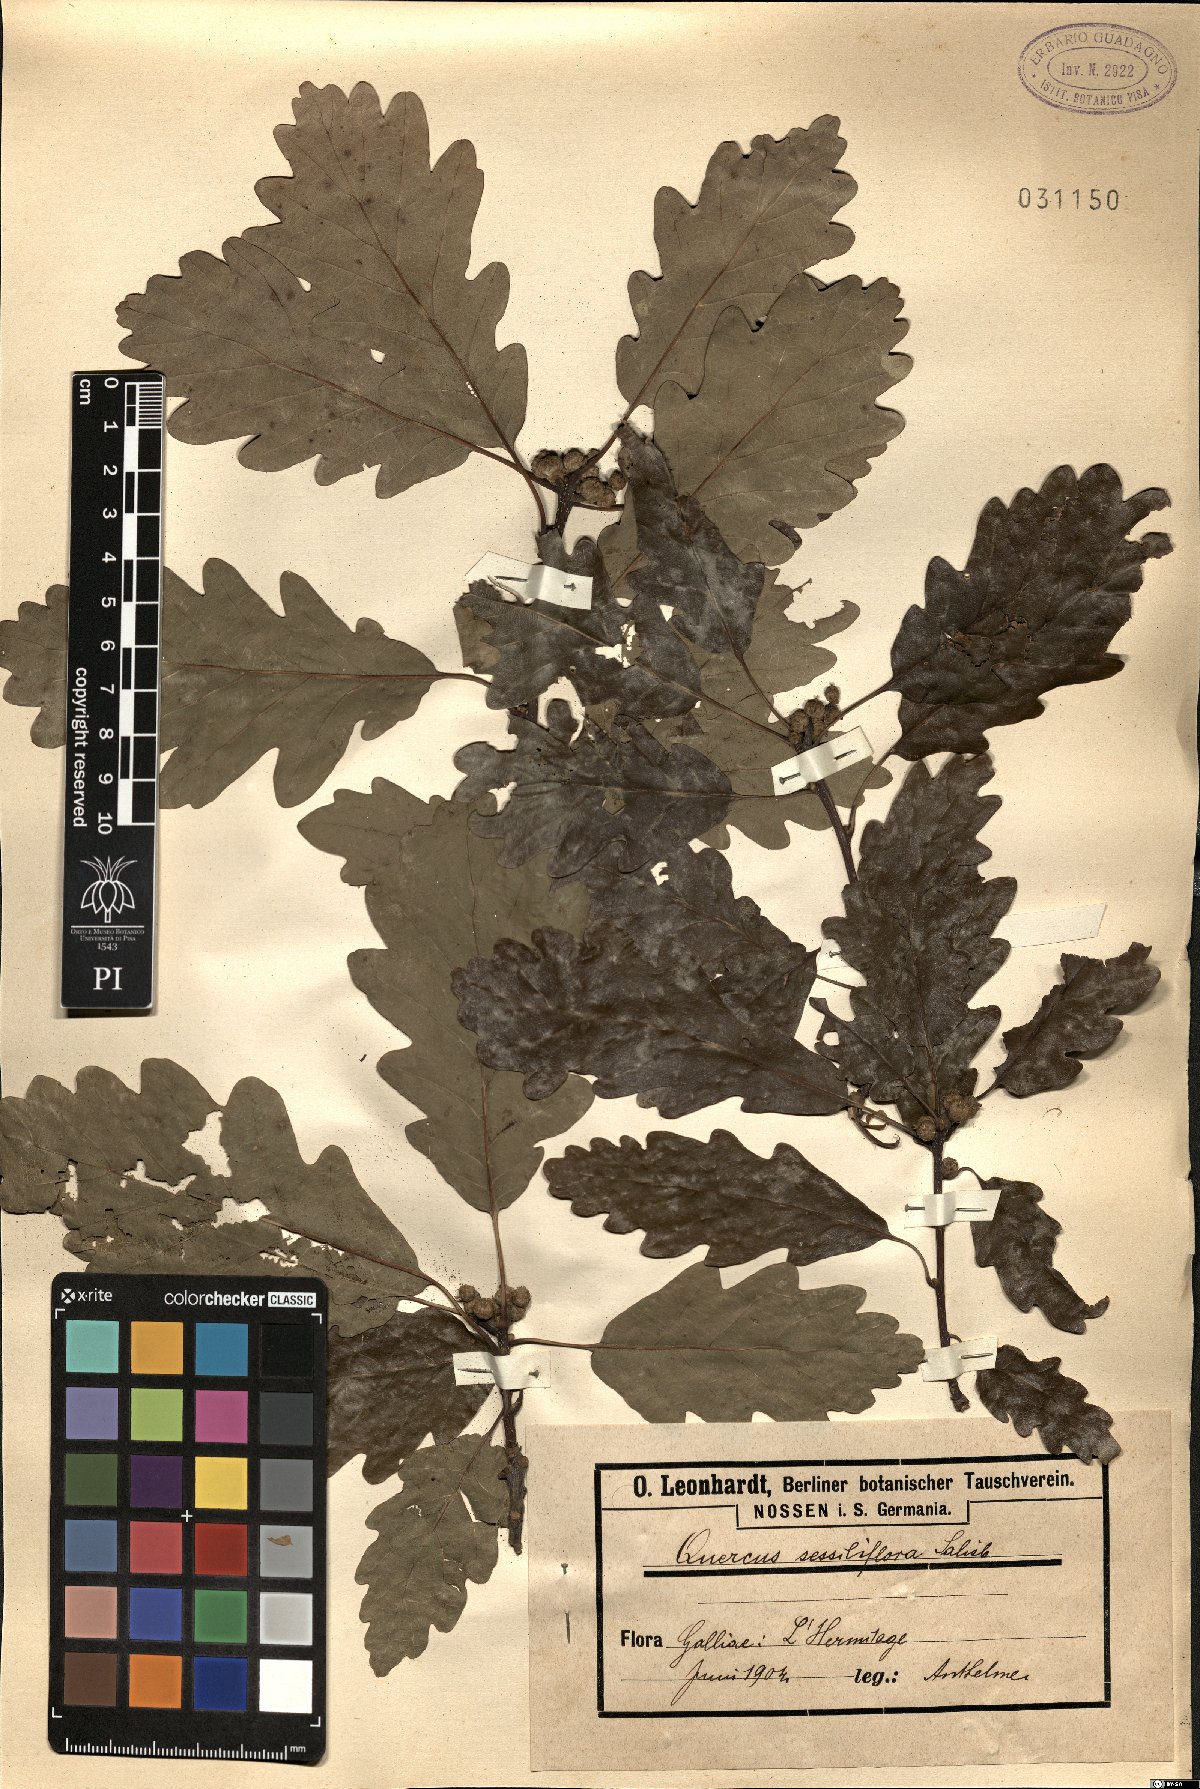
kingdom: Plantae
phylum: Tracheophyta
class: Magnoliopsida
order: Fagales
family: Fagaceae
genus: Quercus
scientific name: Quercus petraea
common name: Sessile oak
